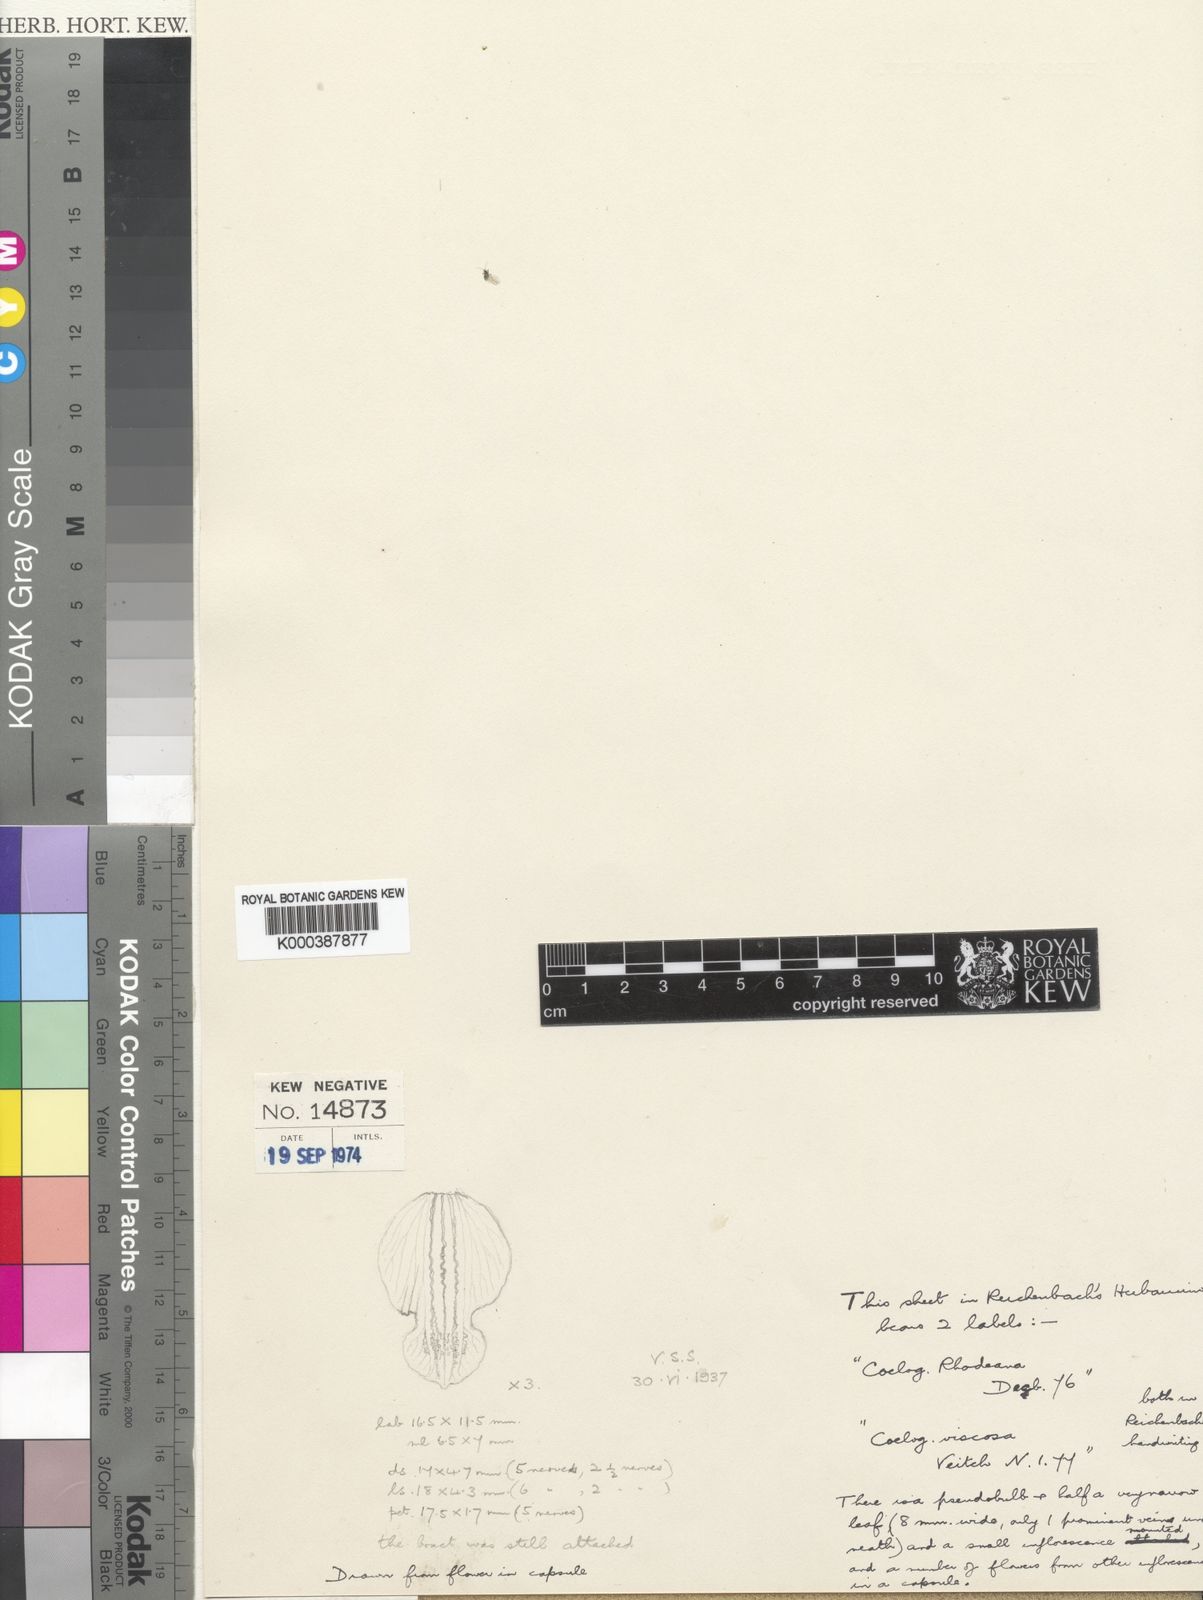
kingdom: Plantae
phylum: Tracheophyta
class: Liliopsida
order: Asparagales
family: Orchidaceae
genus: Coelogyne
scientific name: Coelogyne trinervis
